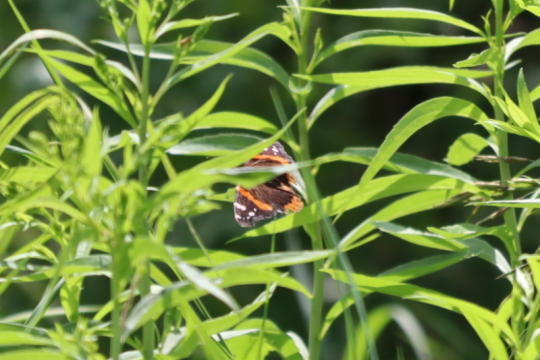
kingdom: Animalia
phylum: Arthropoda
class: Insecta
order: Lepidoptera
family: Nymphalidae
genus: Vanessa
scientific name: Vanessa atalanta
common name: Red Admiral
